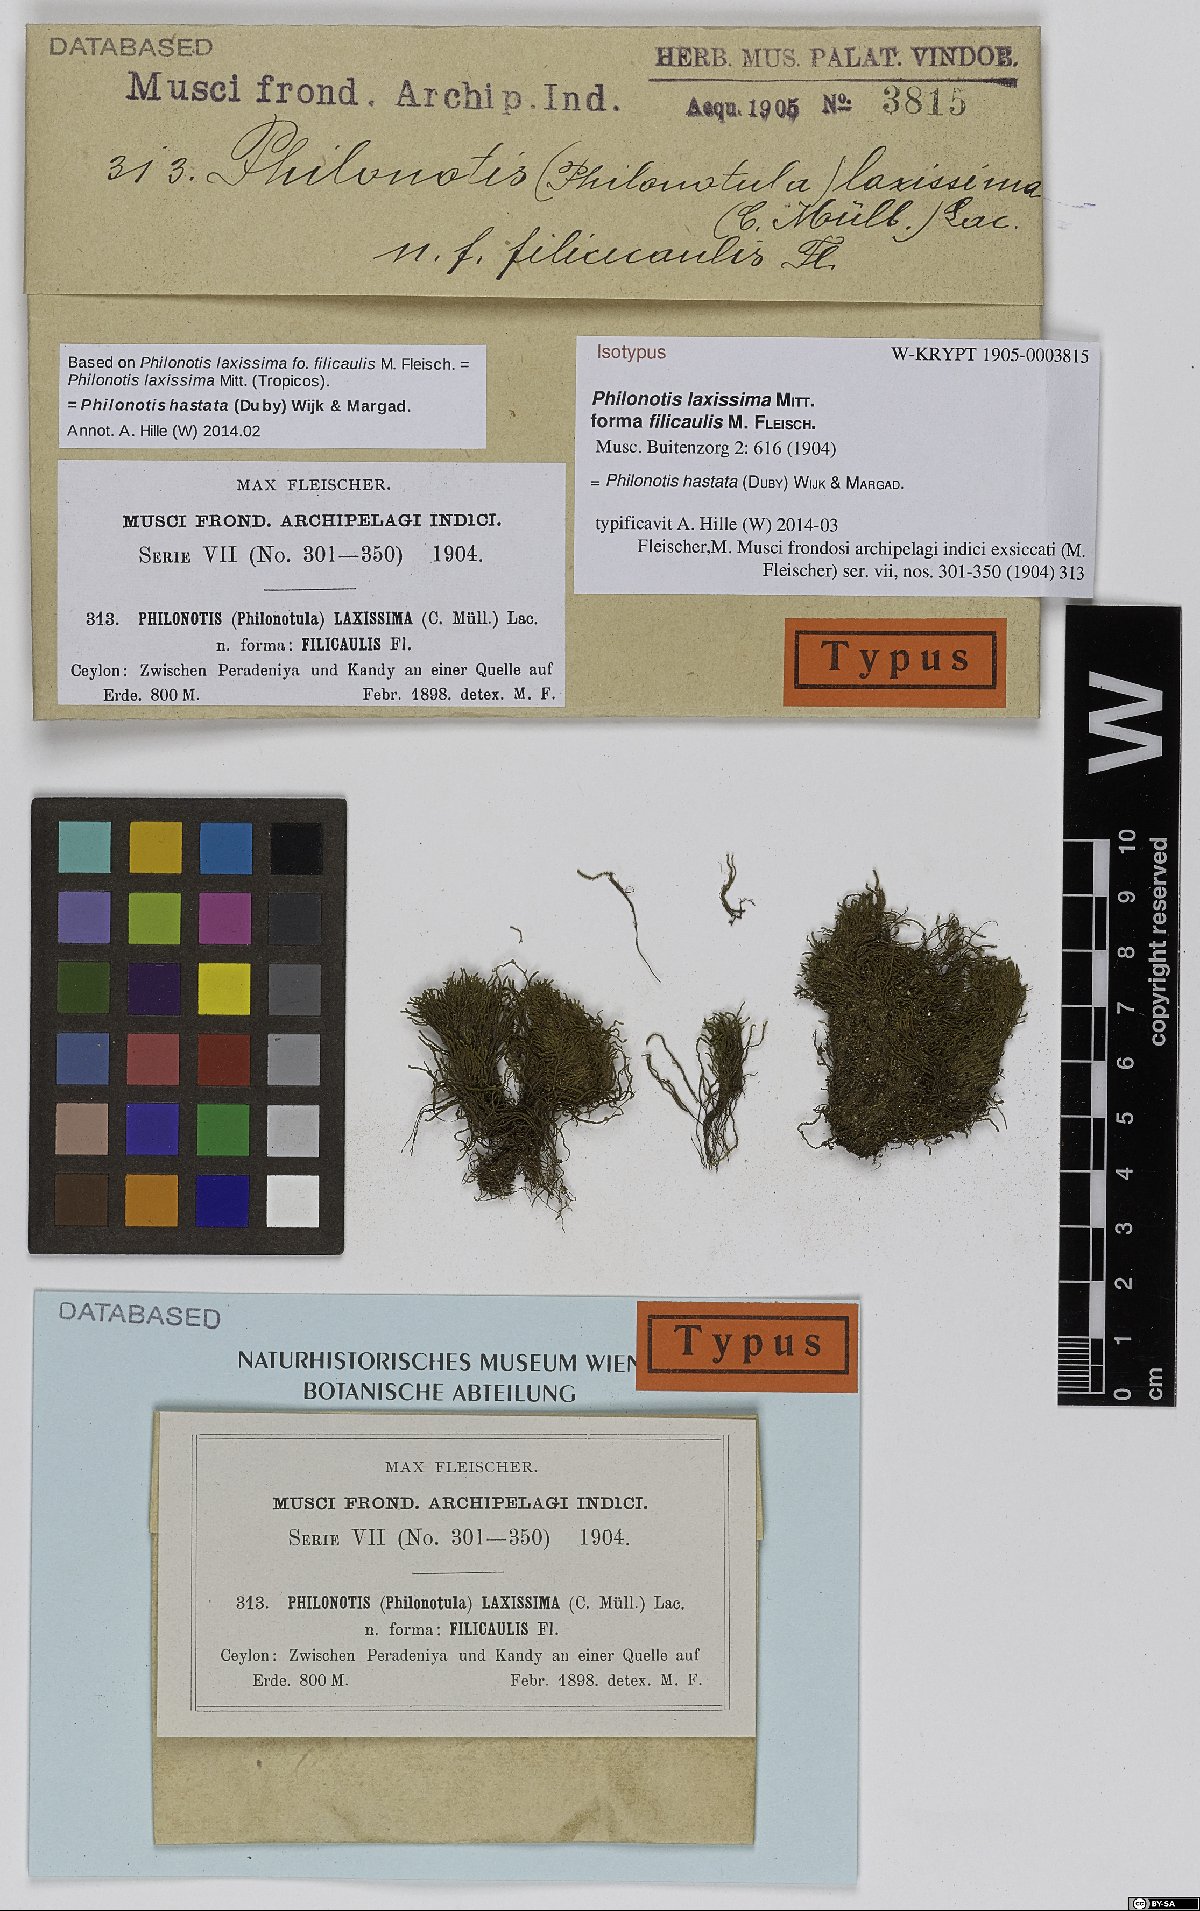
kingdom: Plantae
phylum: Bryophyta
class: Bryopsida
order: Bartramiales
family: Bartramiaceae
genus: Philonotis
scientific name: Philonotis hastata
